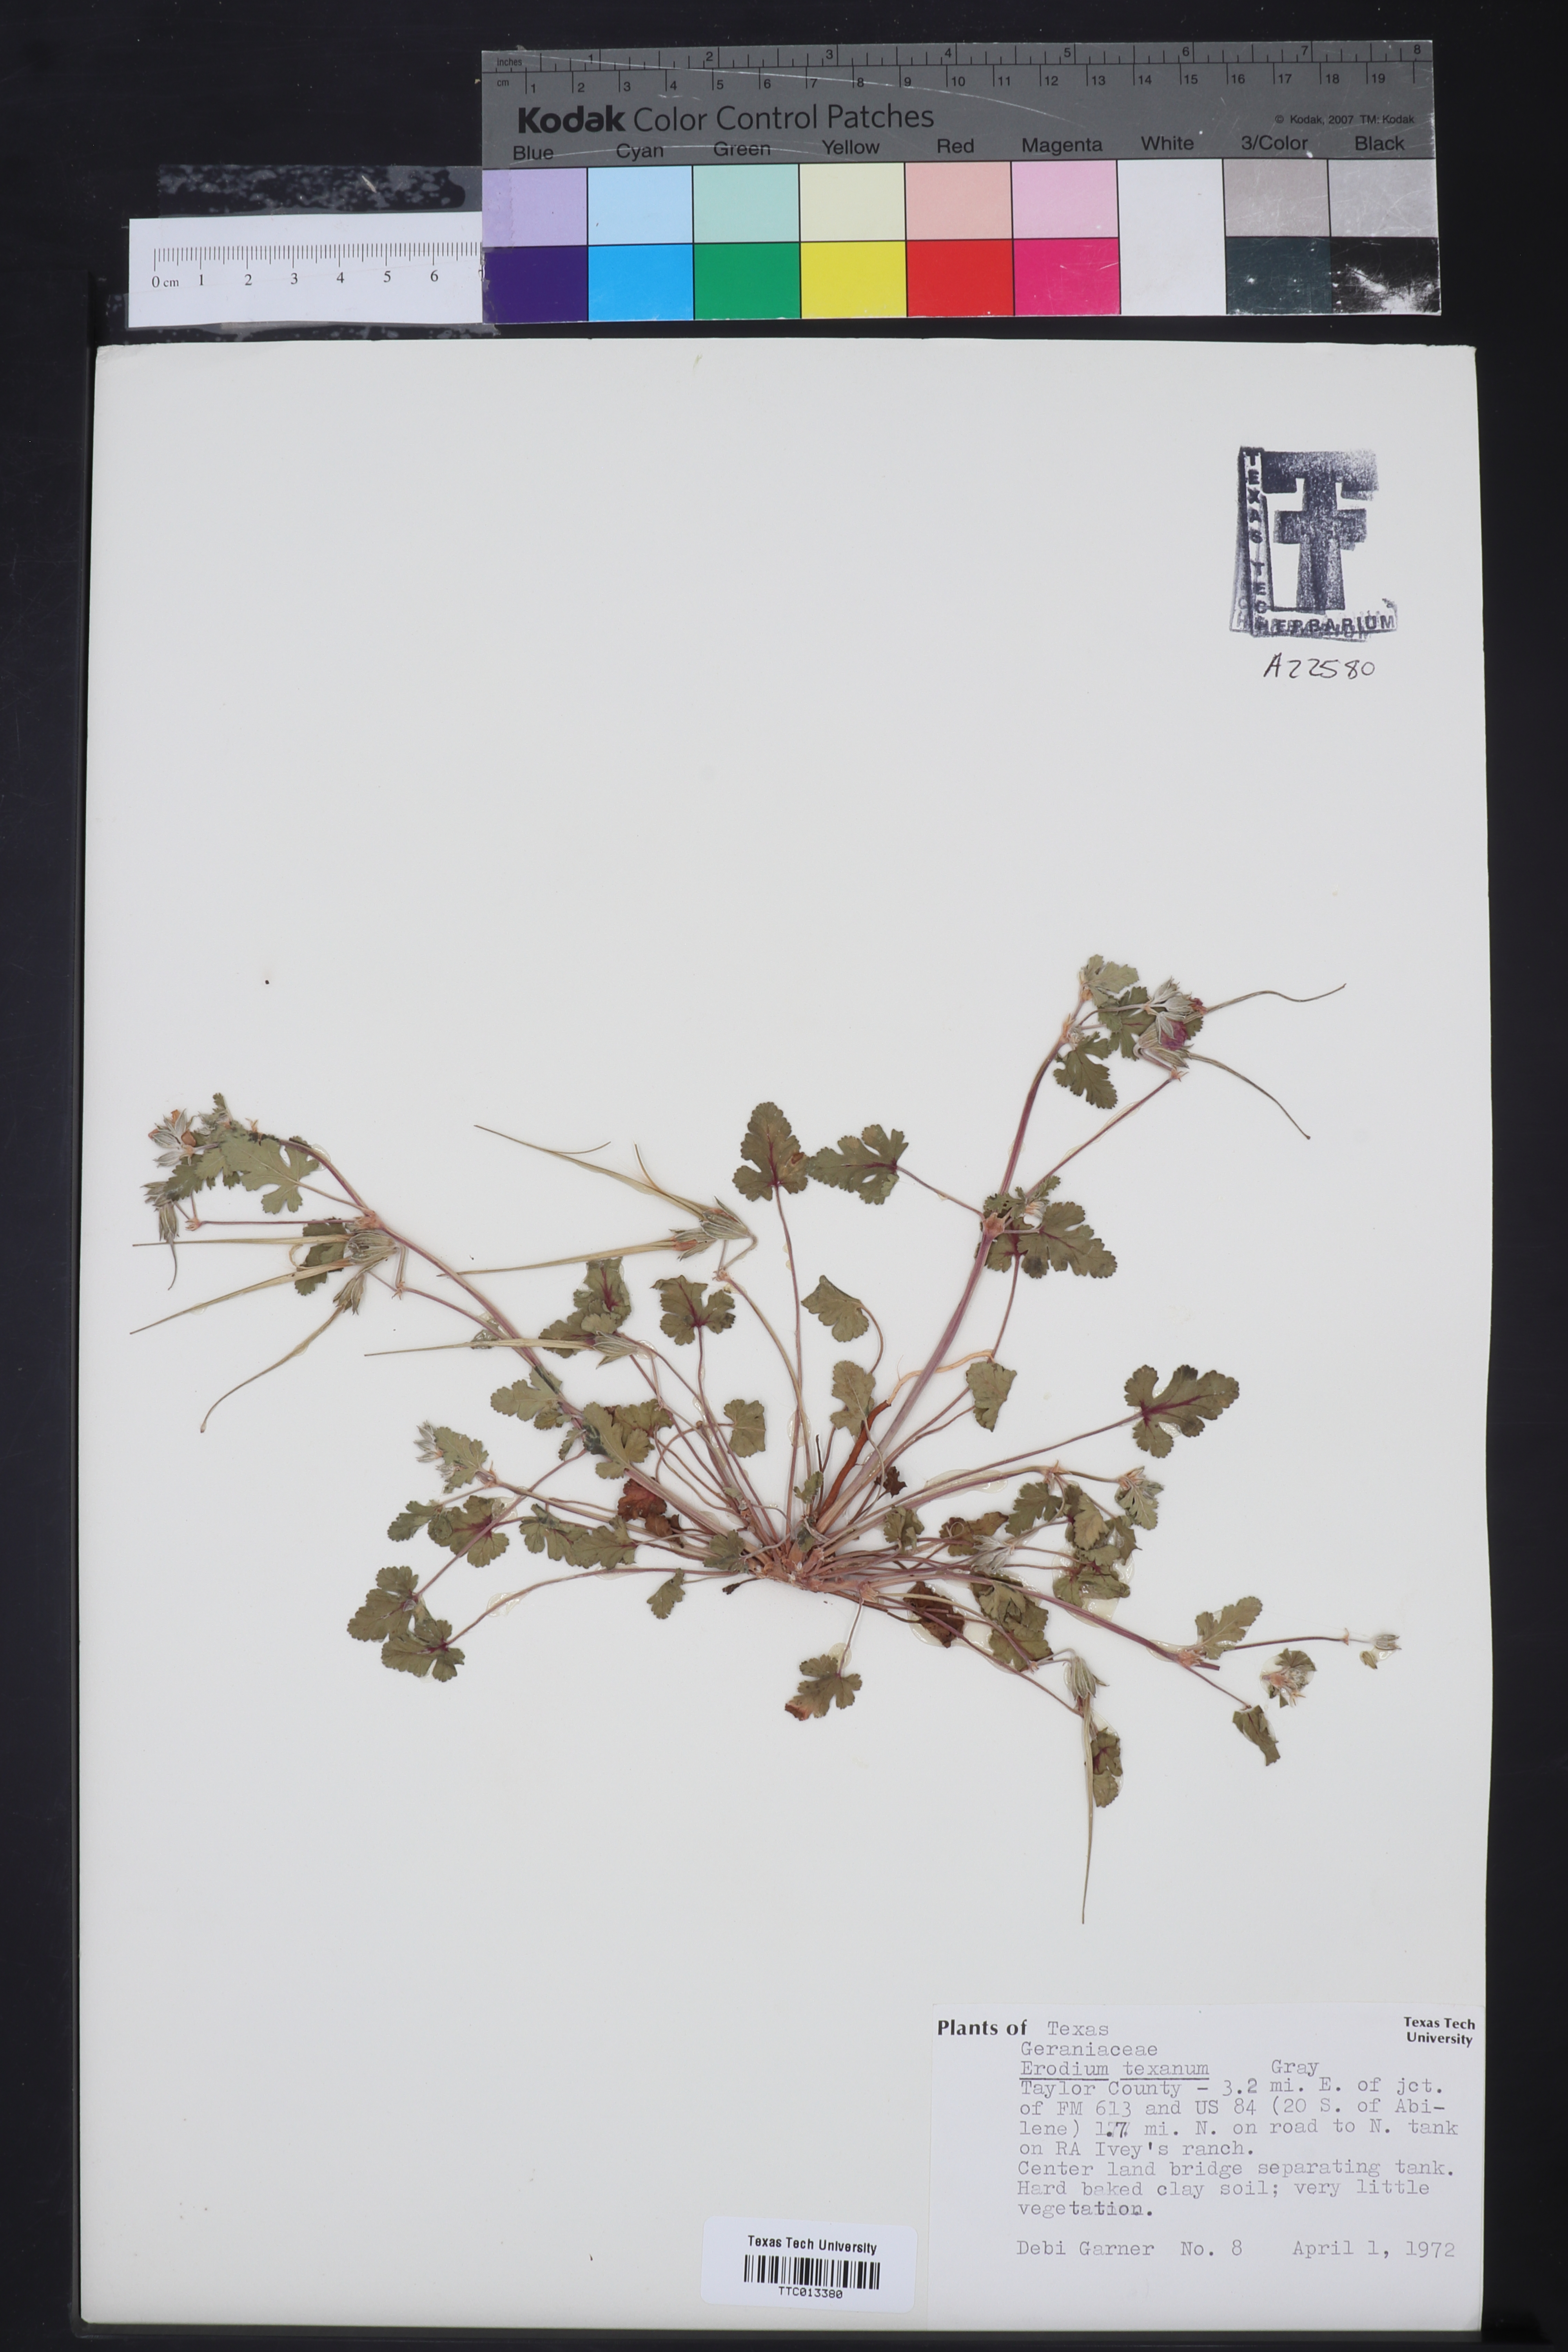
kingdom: Plantae
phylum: Tracheophyta
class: Magnoliopsida
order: Geraniales
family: Geraniaceae
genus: Erodium
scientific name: Erodium texanum
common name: Texas stork's-bill
